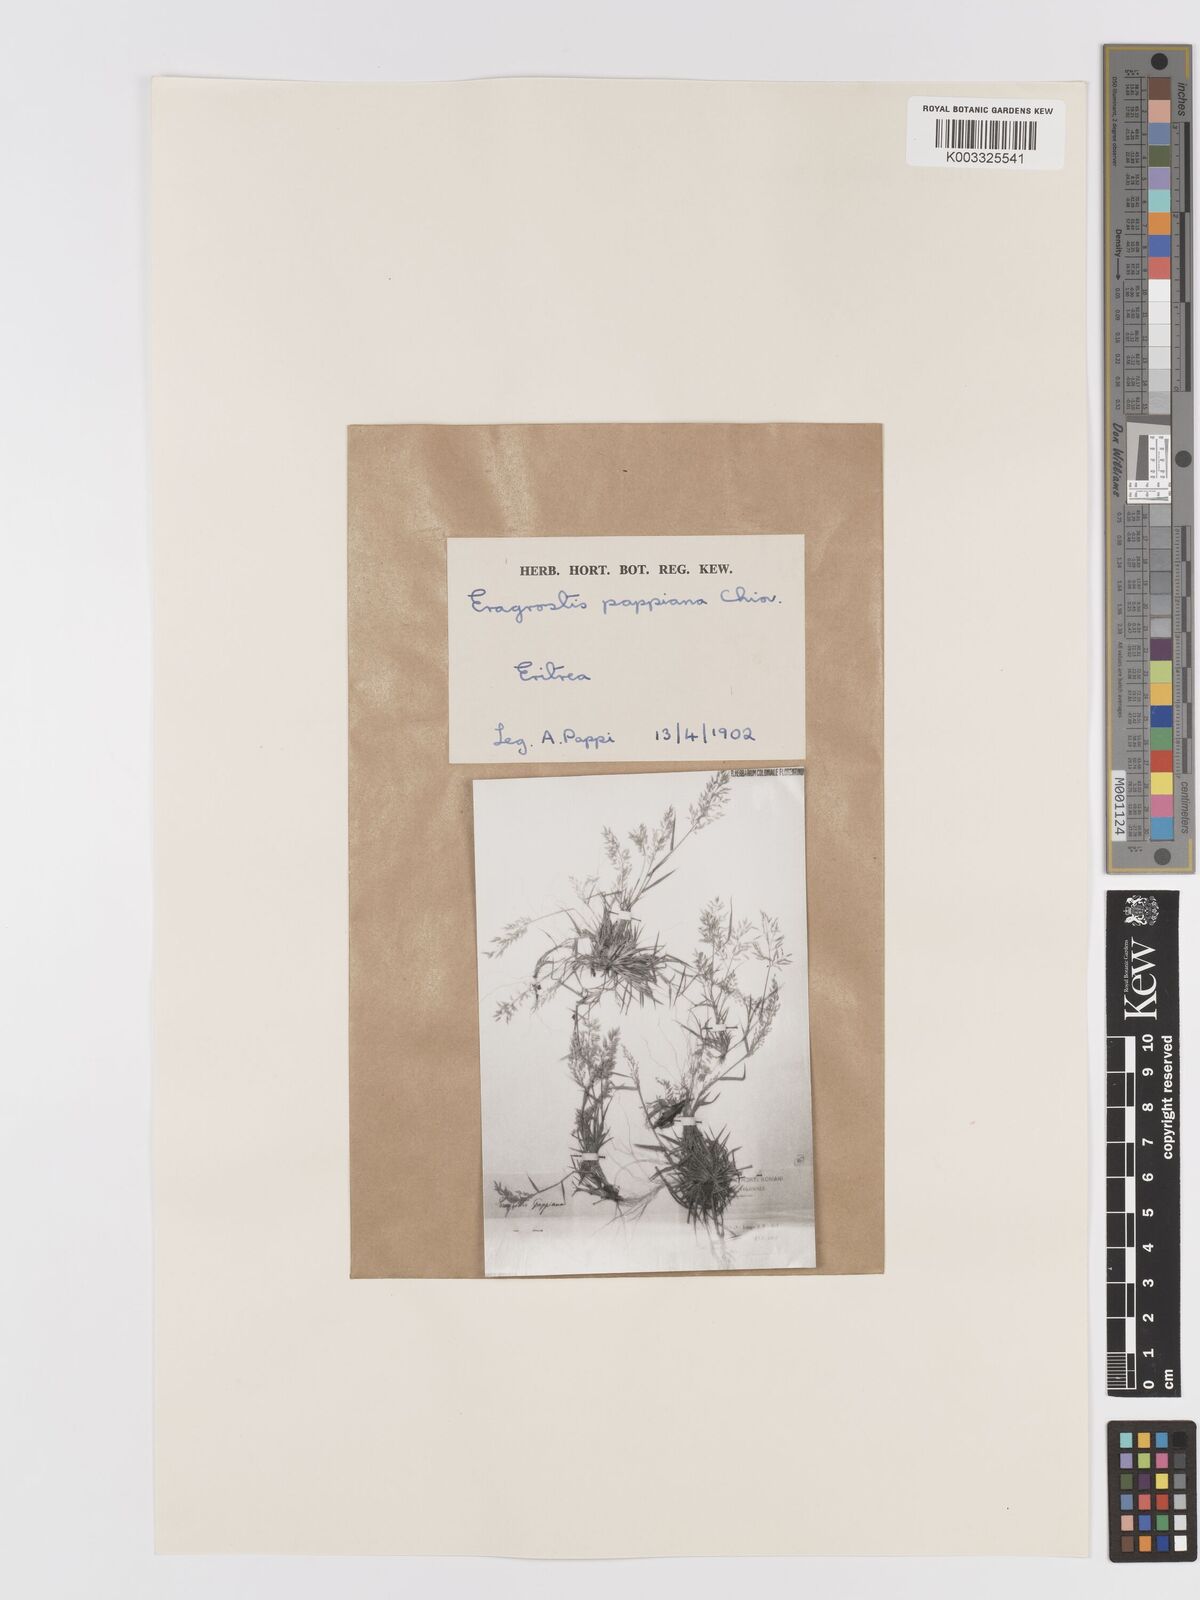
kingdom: Plantae
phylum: Tracheophyta
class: Liliopsida
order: Poales
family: Poaceae
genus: Eragrostis
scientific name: Eragrostis minor
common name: Small love-grass
